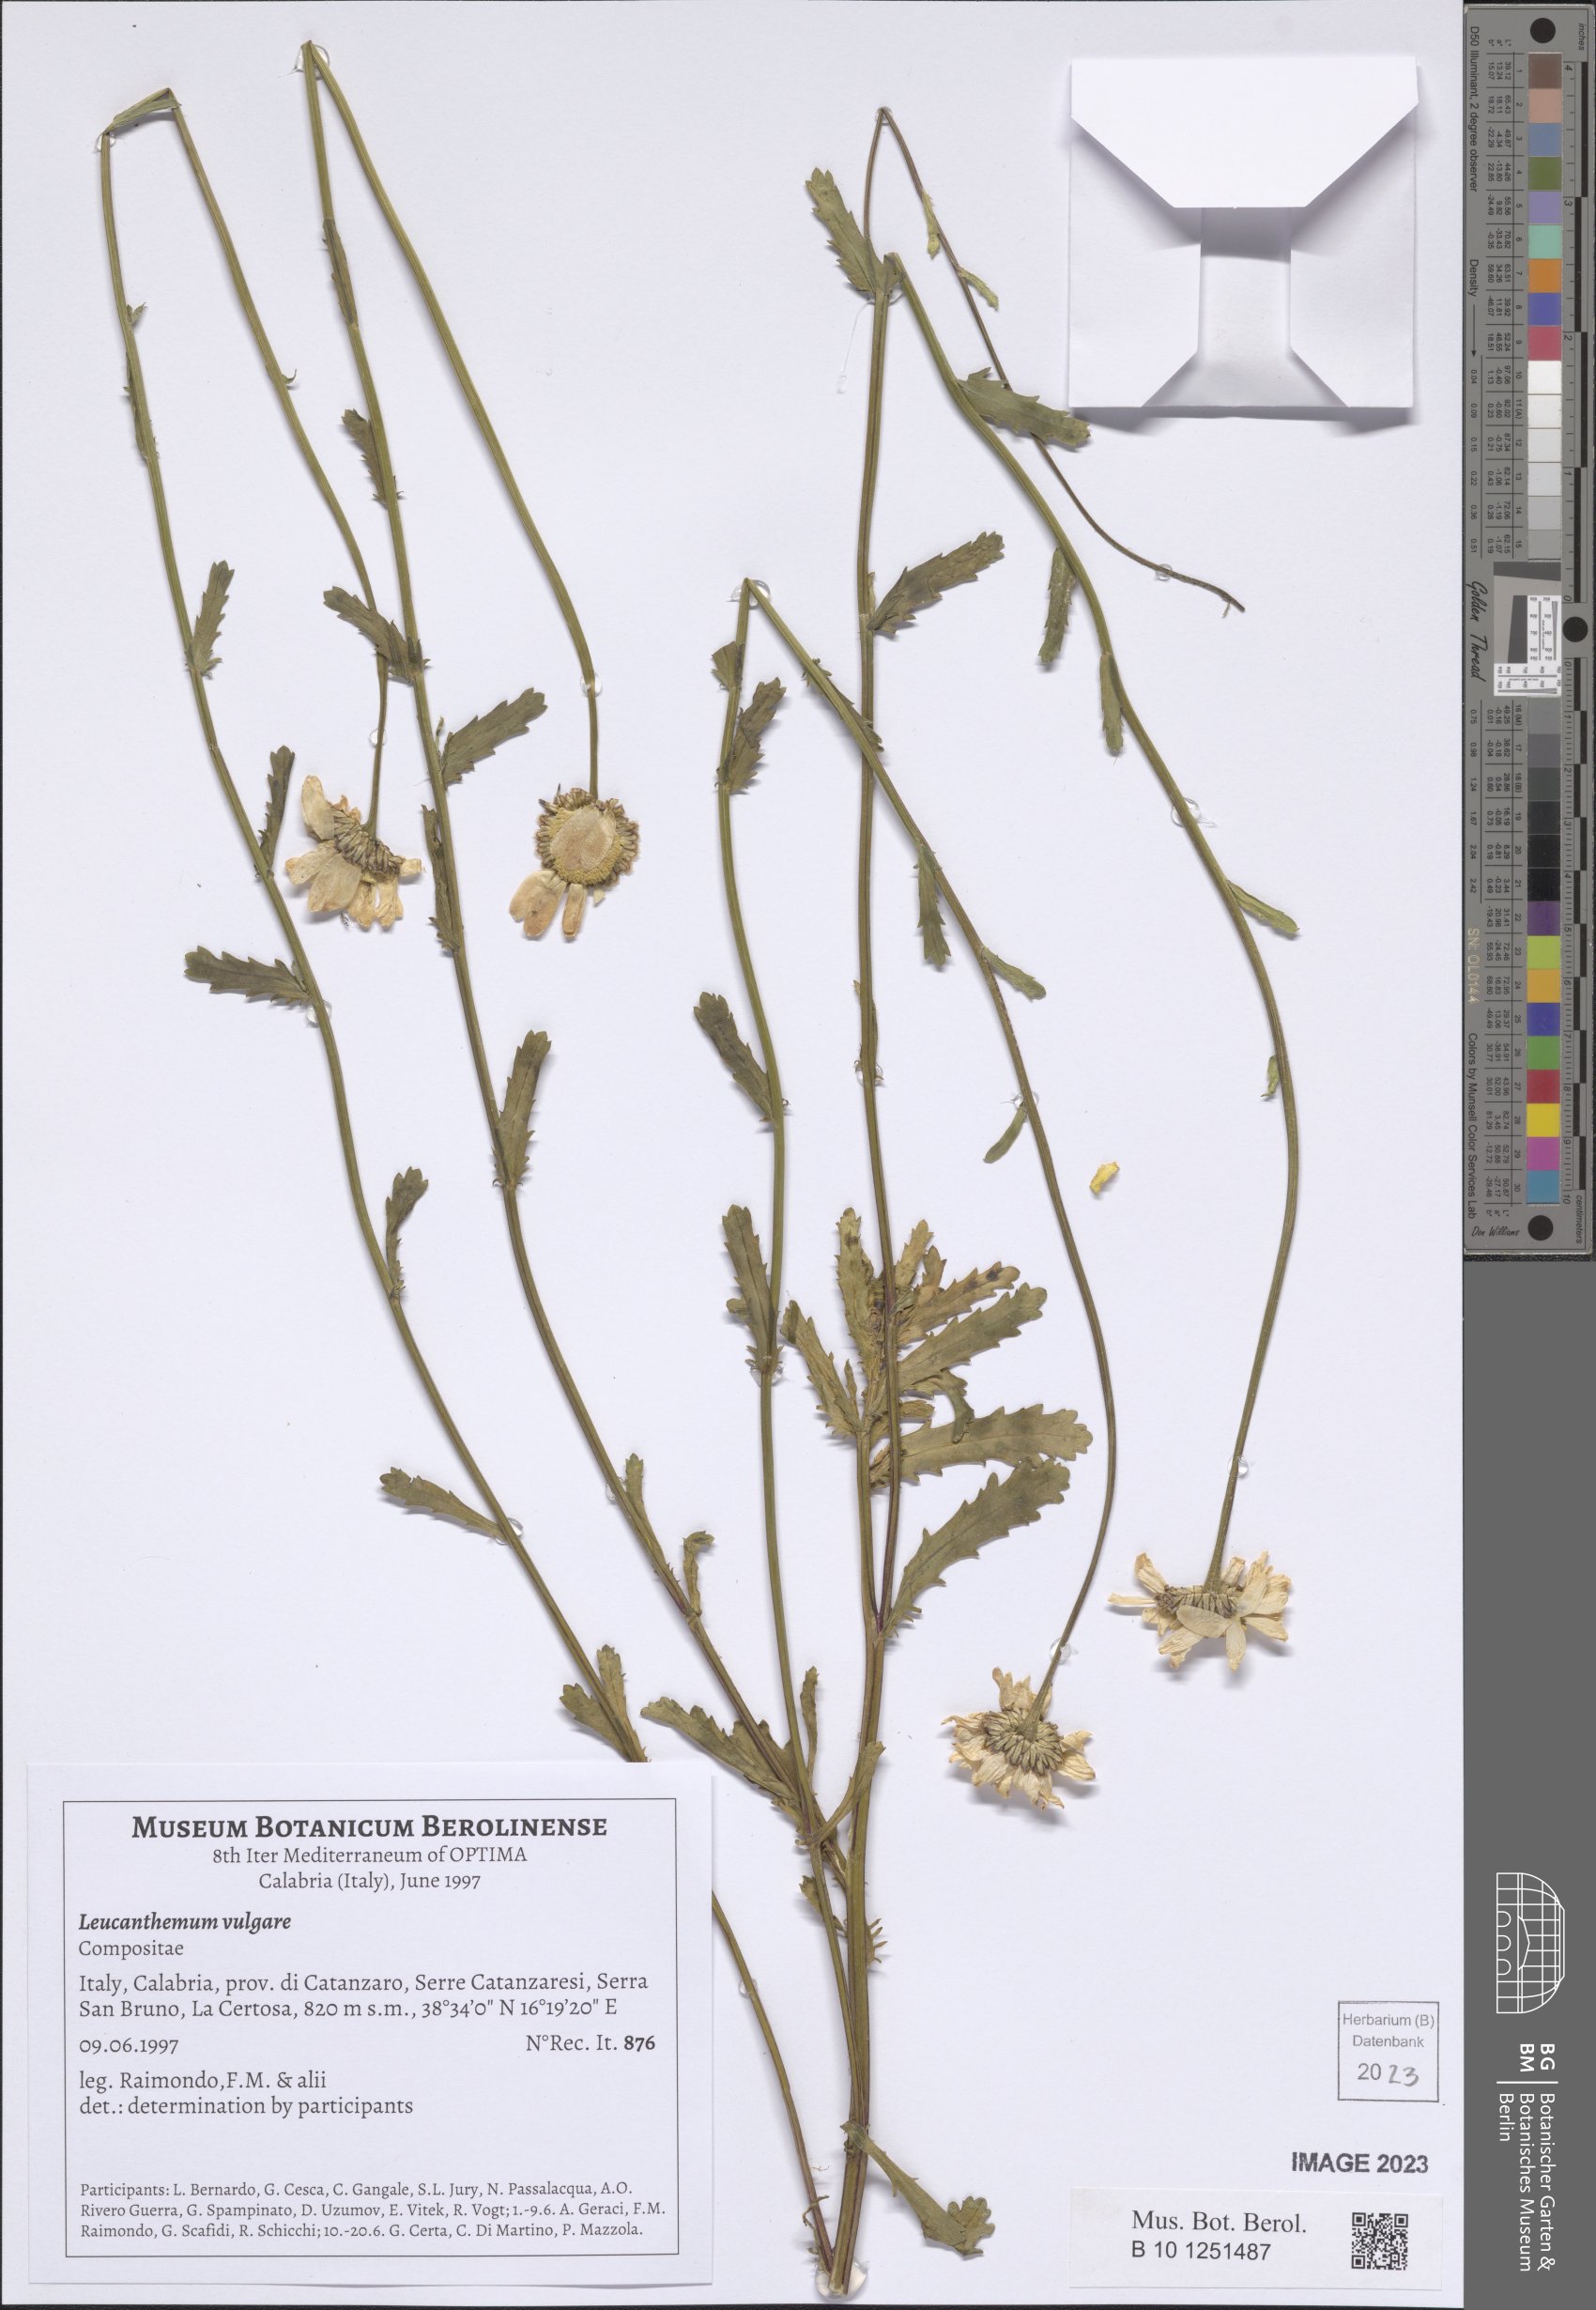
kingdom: Plantae
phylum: Tracheophyta
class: Magnoliopsida
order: Asterales
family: Asteraceae
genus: Leucanthemum
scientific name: Leucanthemum vulgare
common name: Oxeye daisy
